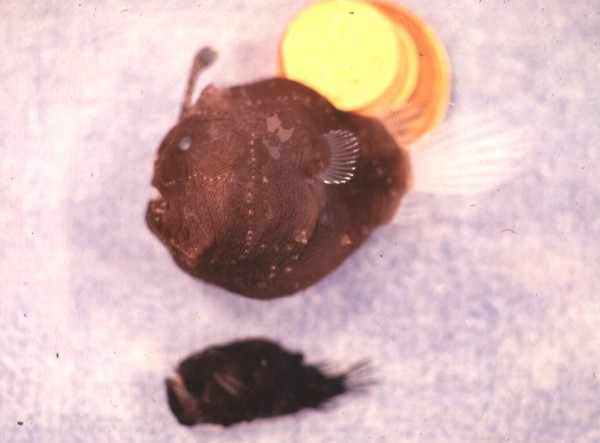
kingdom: Animalia
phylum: Chordata
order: Lophiiformes
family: Himantolophidae
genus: Himantolophus
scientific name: Himantolophus appelii
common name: Prickly footballfish
